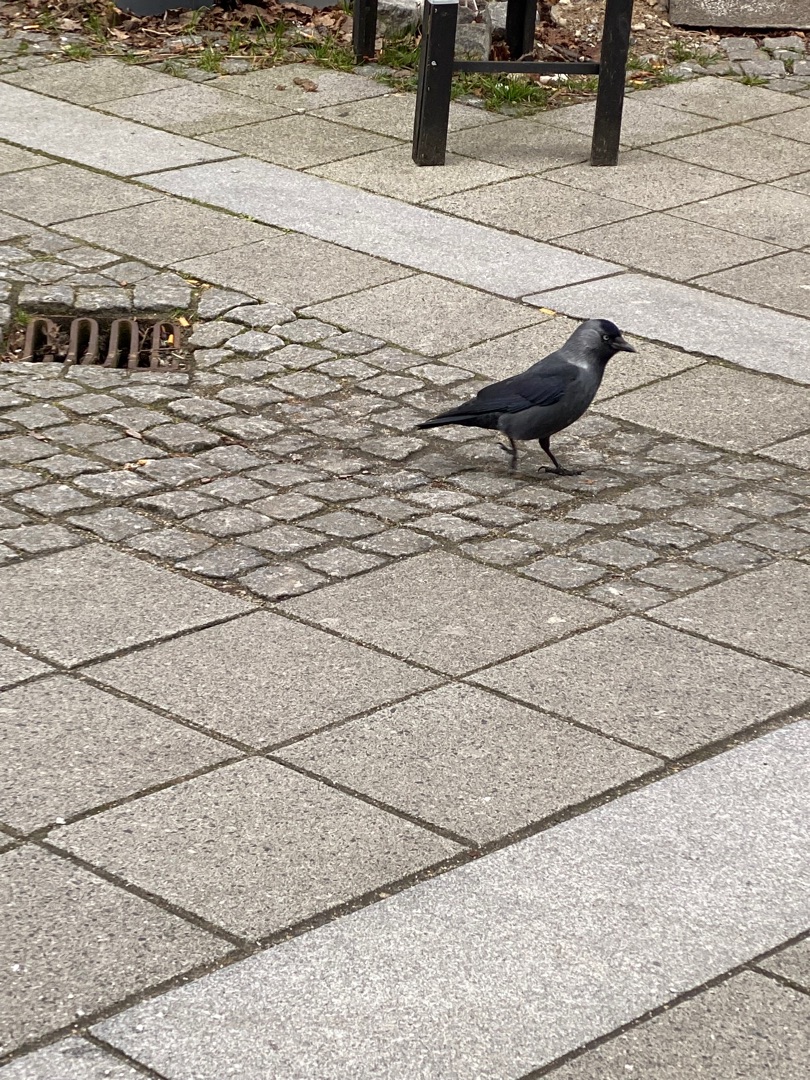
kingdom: Animalia
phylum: Chordata
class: Aves
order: Passeriformes
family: Corvidae
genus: Coloeus
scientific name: Coloeus monedula
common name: Allike
